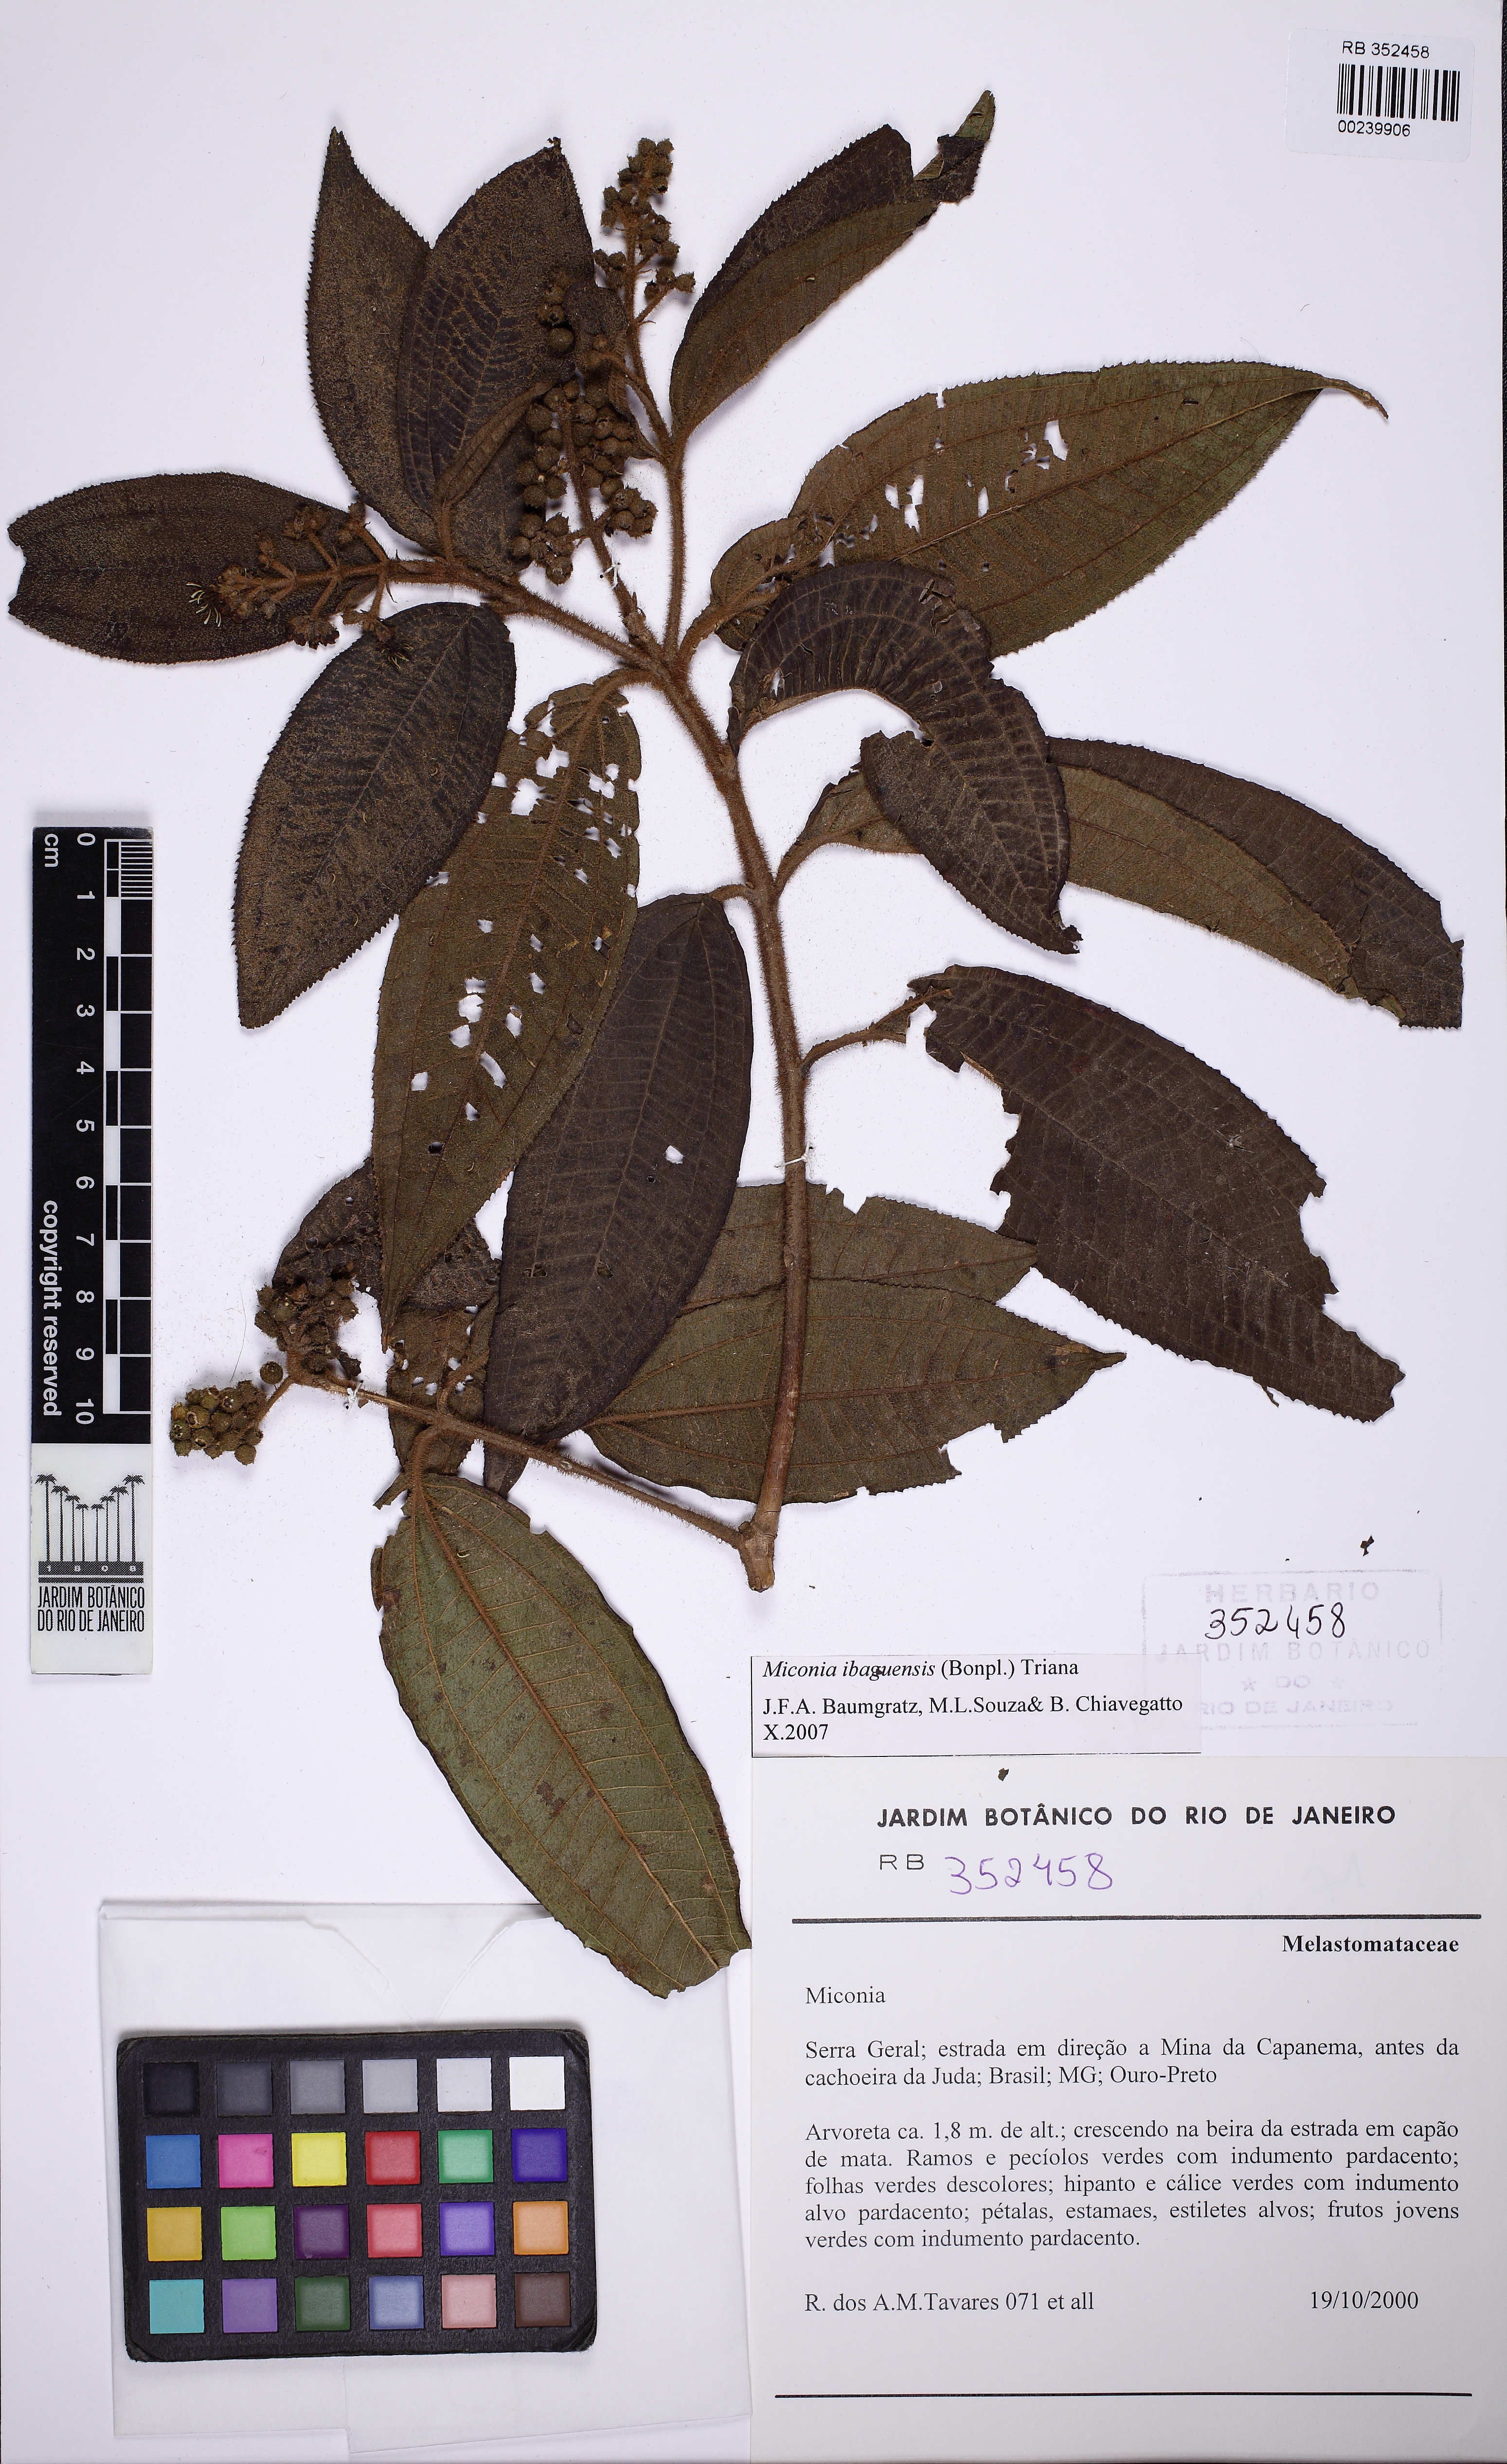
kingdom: Plantae
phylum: Tracheophyta
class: Magnoliopsida
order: Myrtales
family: Melastomataceae
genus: Miconia
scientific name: Miconia ibaguensis
